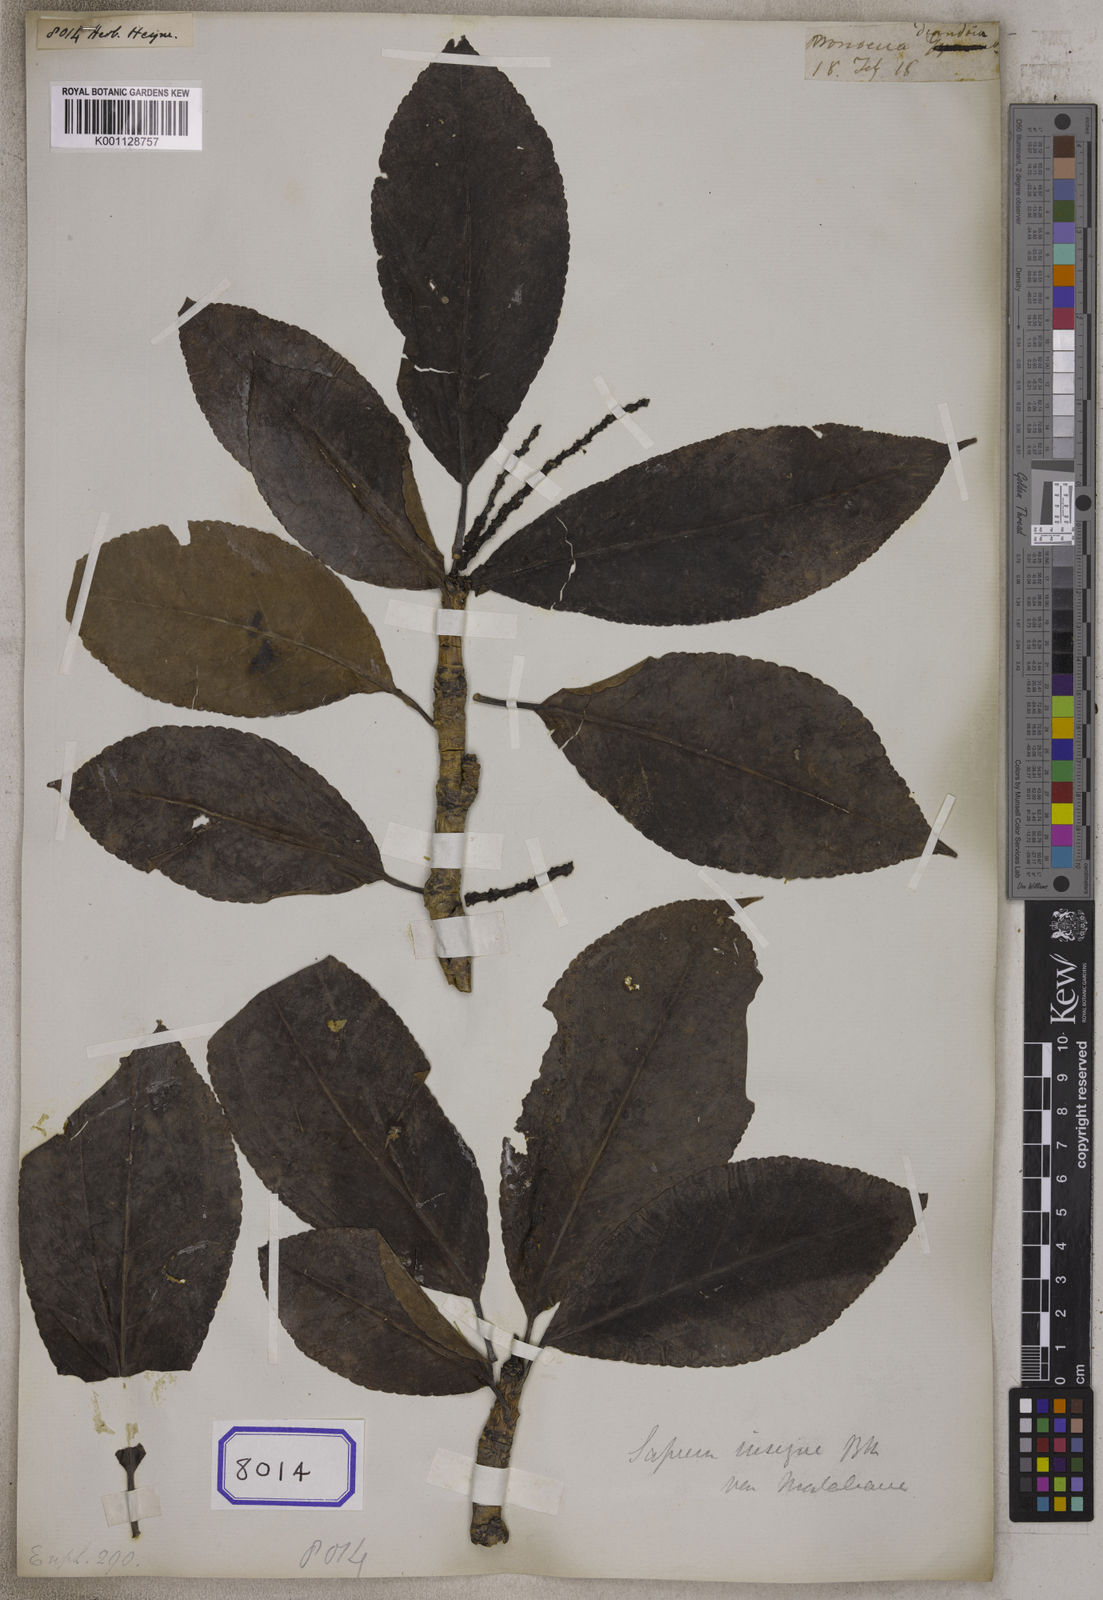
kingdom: Plantae
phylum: Tracheophyta
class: Magnoliopsida
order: Malpighiales
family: Euphorbiaceae
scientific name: Euphorbiaceae
